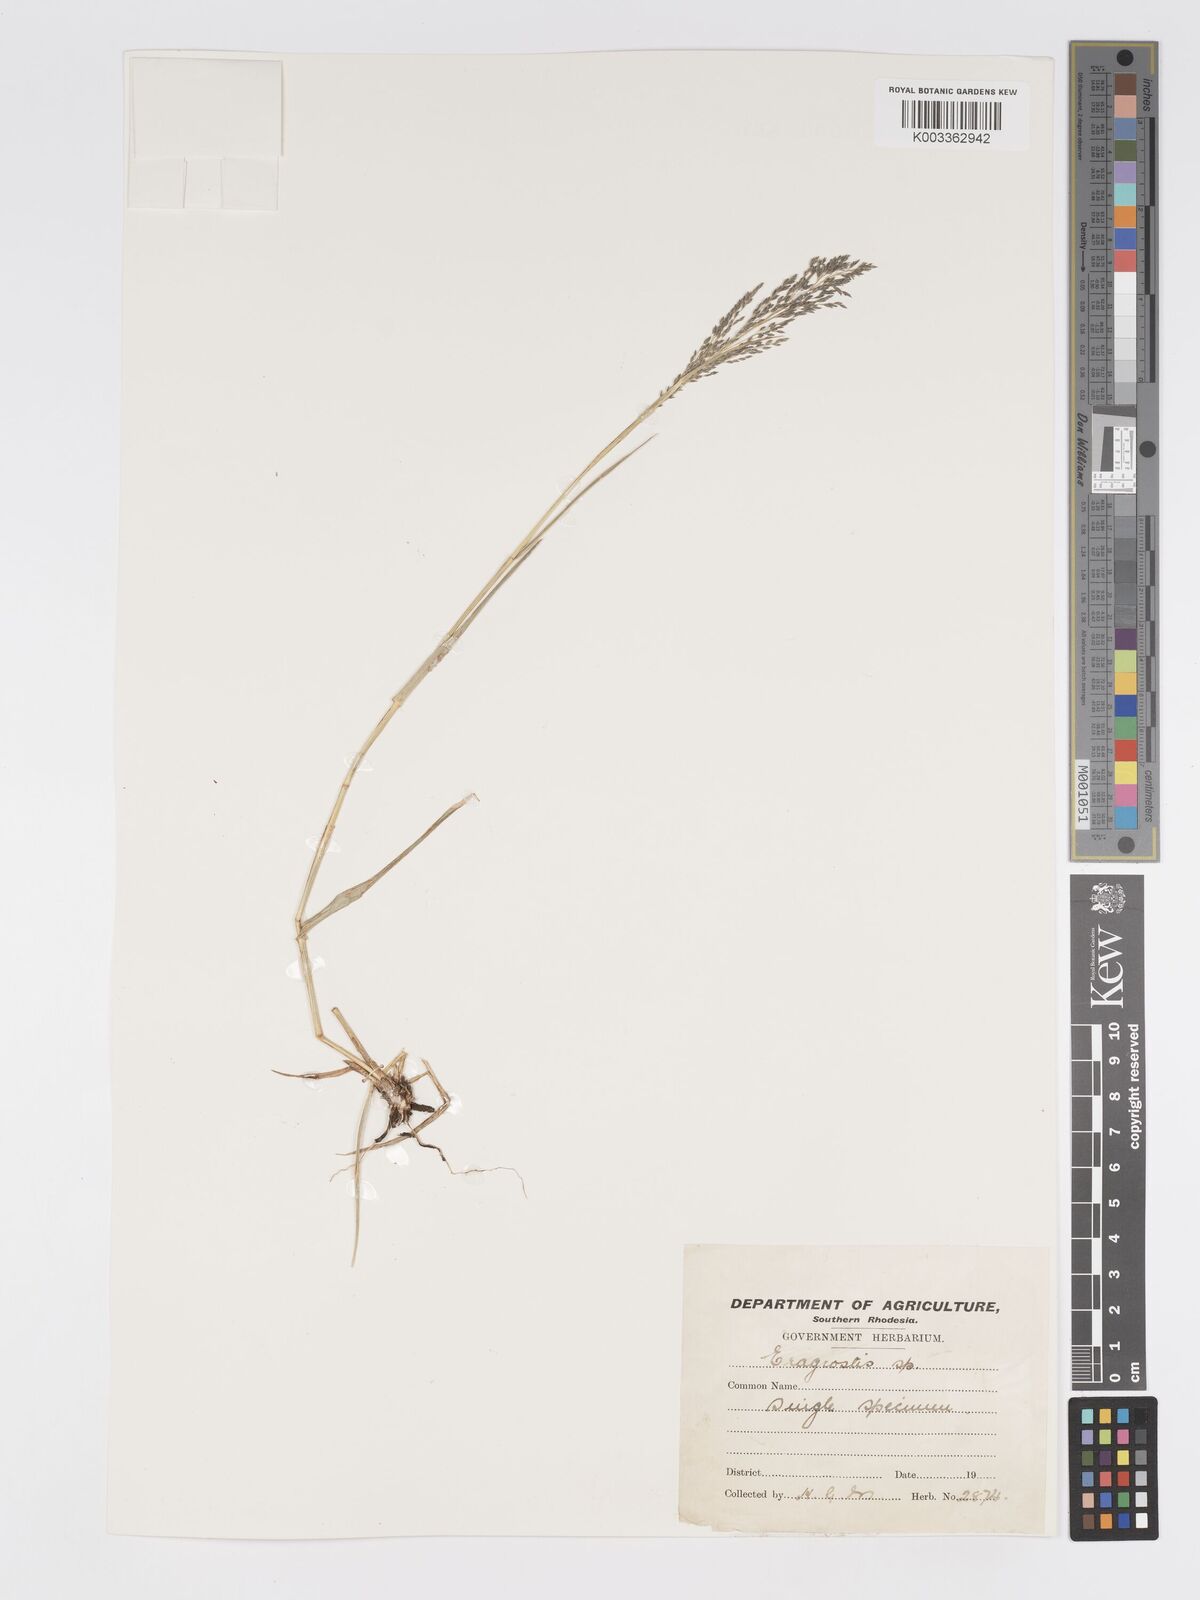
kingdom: Plantae
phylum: Tracheophyta
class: Liliopsida
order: Poales
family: Poaceae
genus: Eragrostis
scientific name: Eragrostis cylindriflora
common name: Cylinderflower lovegrass
